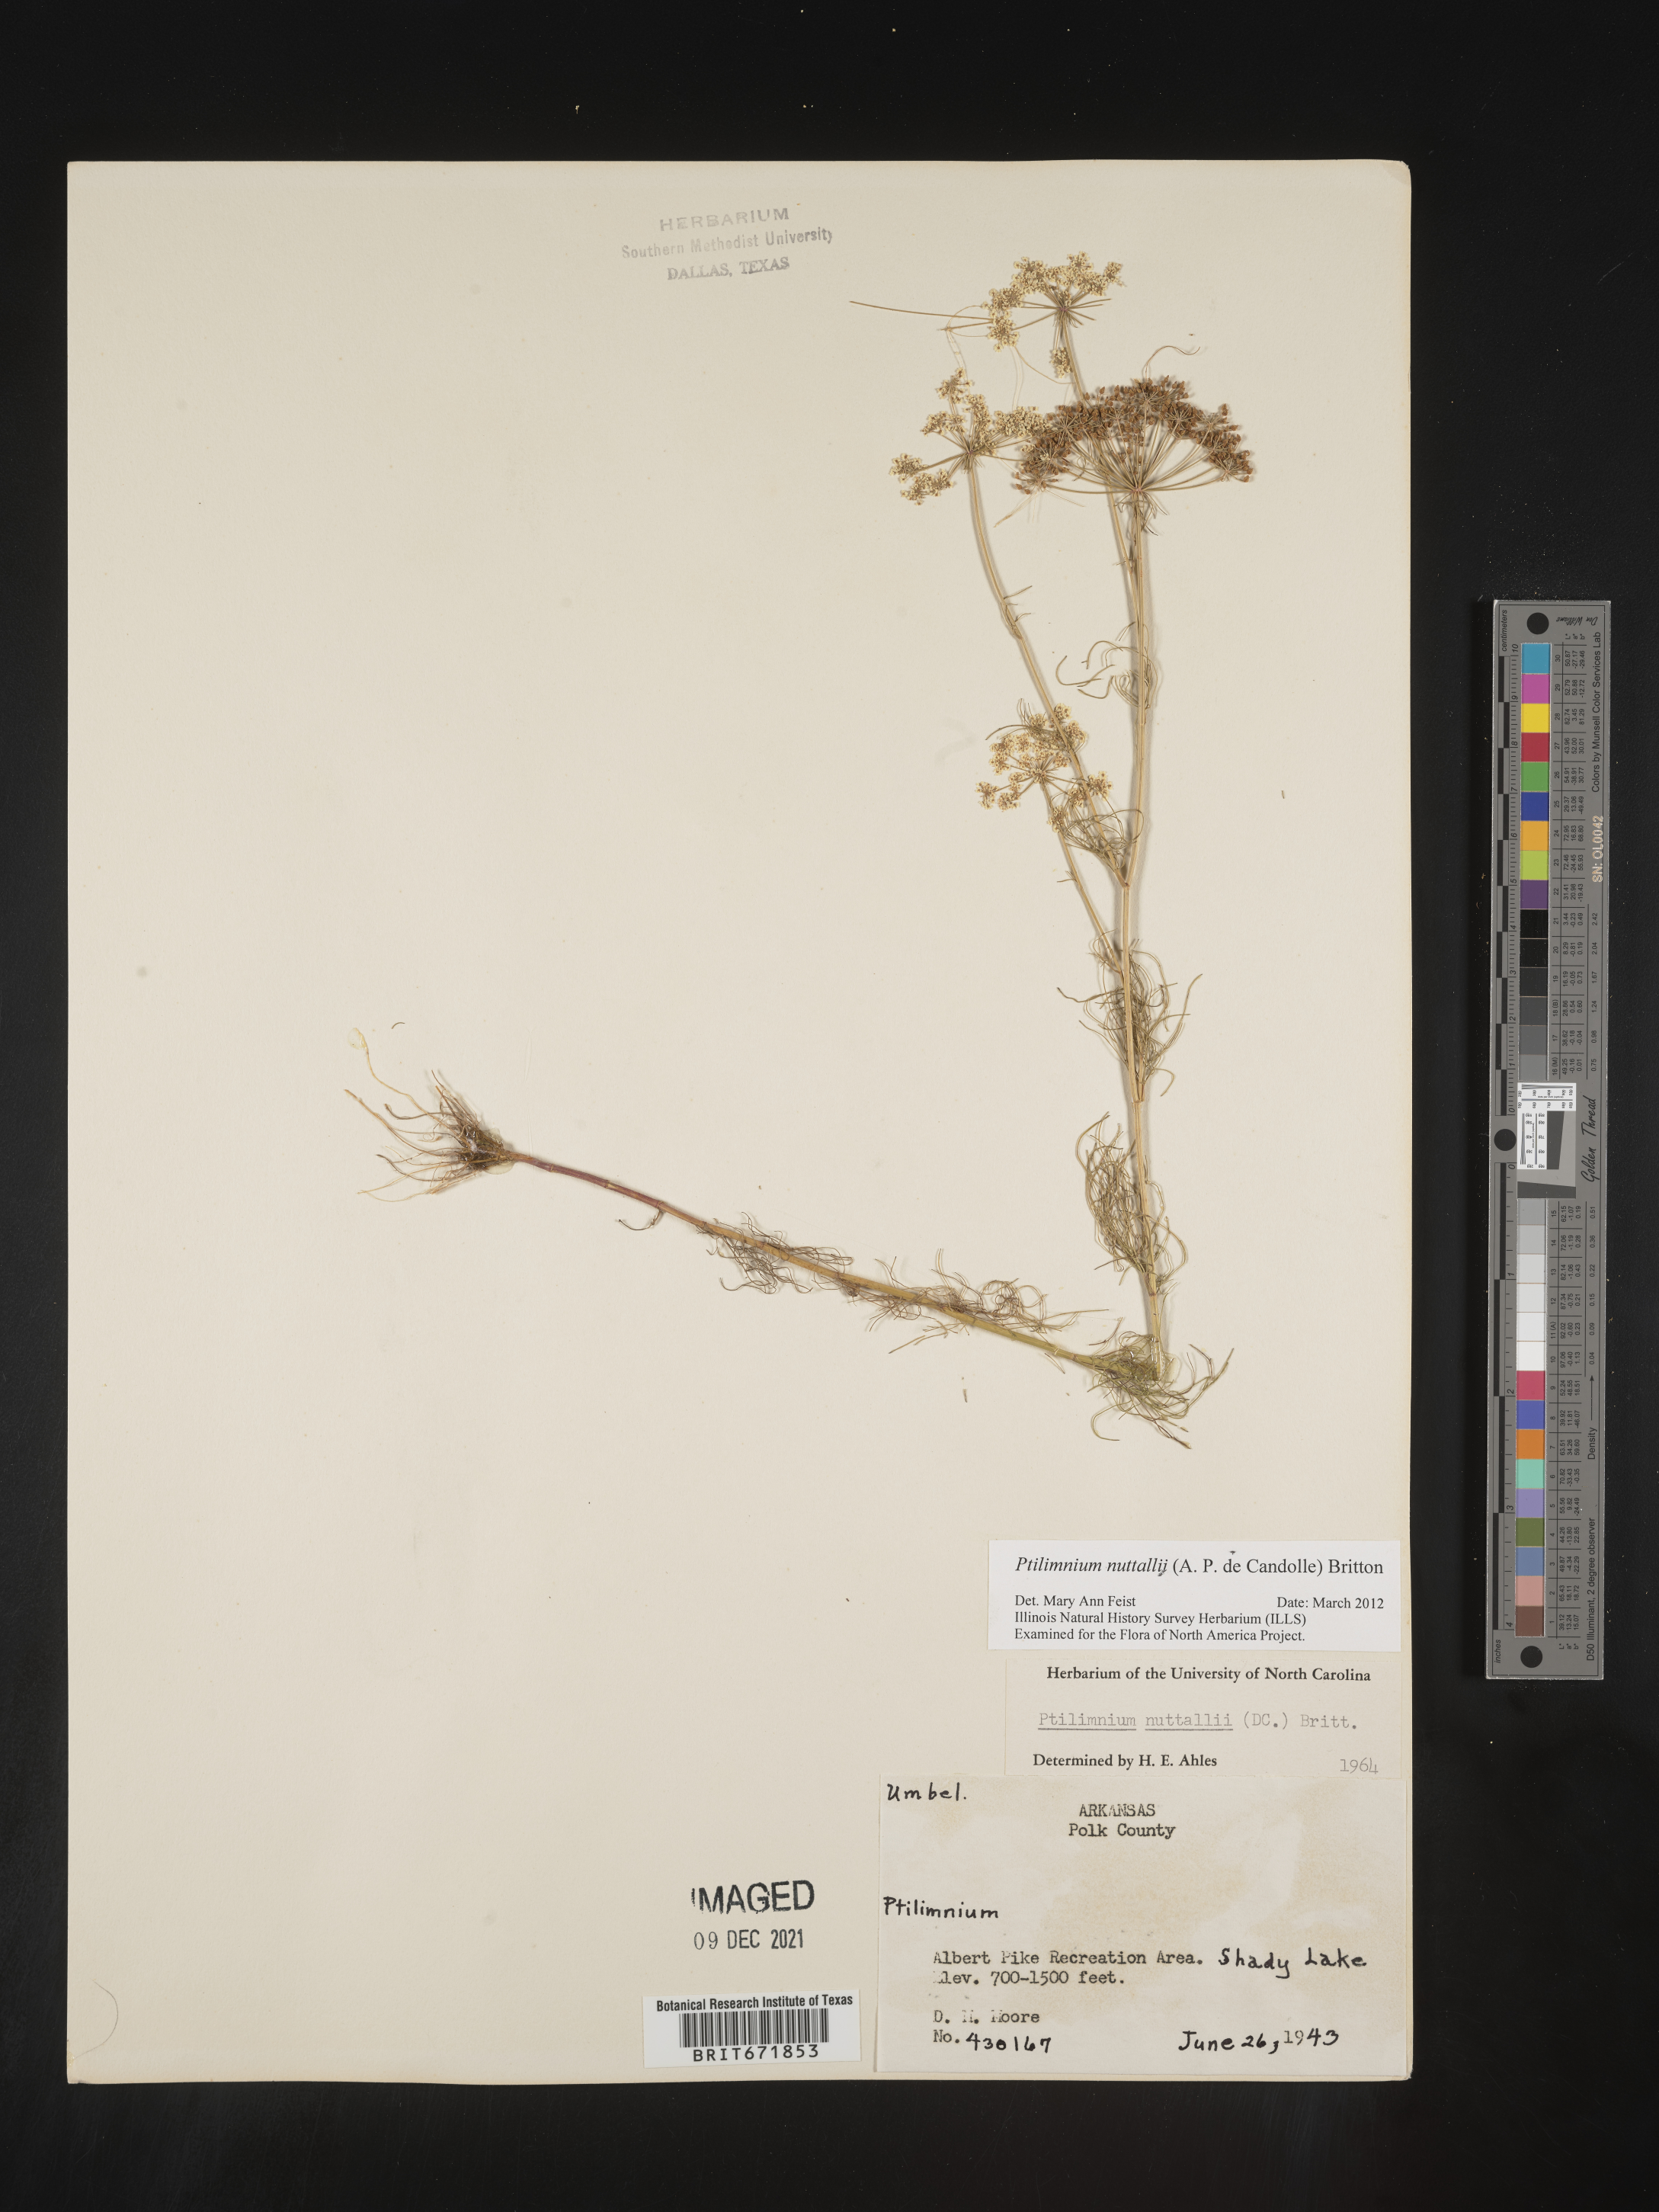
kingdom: Plantae
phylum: Tracheophyta
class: Magnoliopsida
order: Apiales
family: Apiaceae
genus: Ptilimnium
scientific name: Ptilimnium nuttallii
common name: Ozark bishop's-weed
